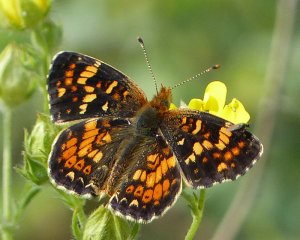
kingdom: Animalia
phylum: Arthropoda
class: Insecta
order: Lepidoptera
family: Nymphalidae
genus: Phyciodes
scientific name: Phyciodes tharos
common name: Field Crescent
